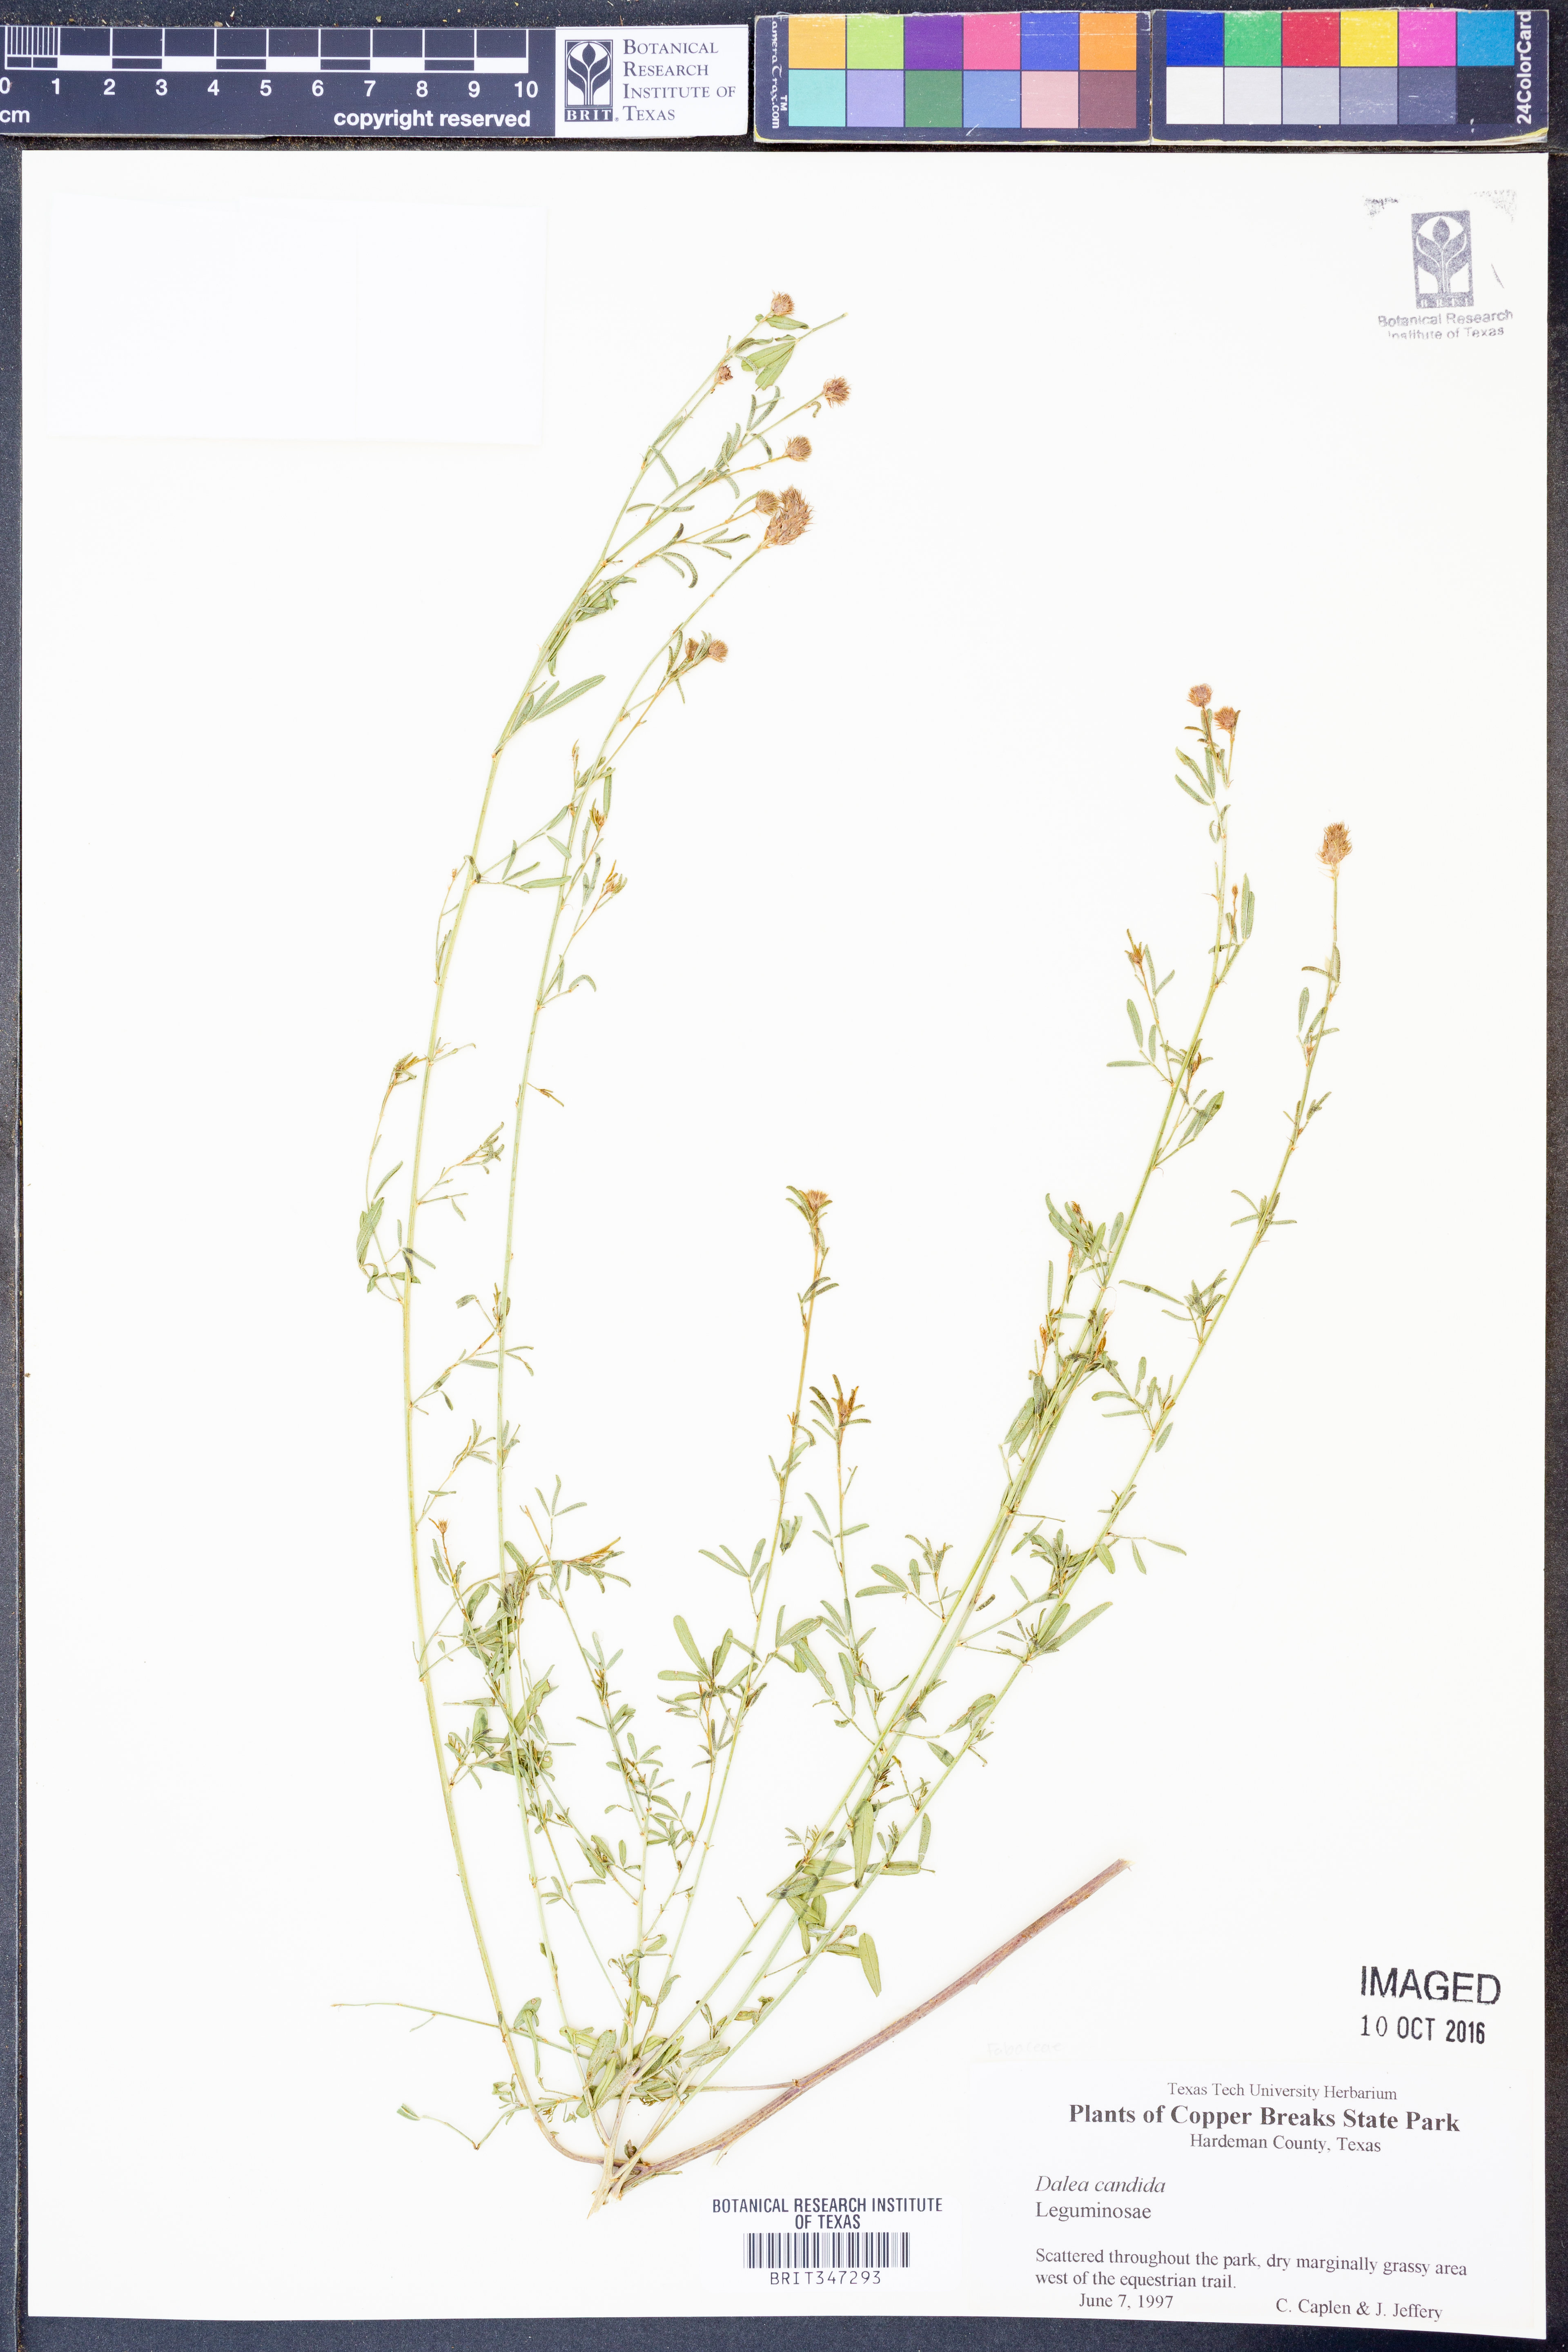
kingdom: Plantae
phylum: Tracheophyta
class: Magnoliopsida
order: Fabales
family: Fabaceae
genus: Dalea
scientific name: Dalea candida
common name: White prairie-clover
